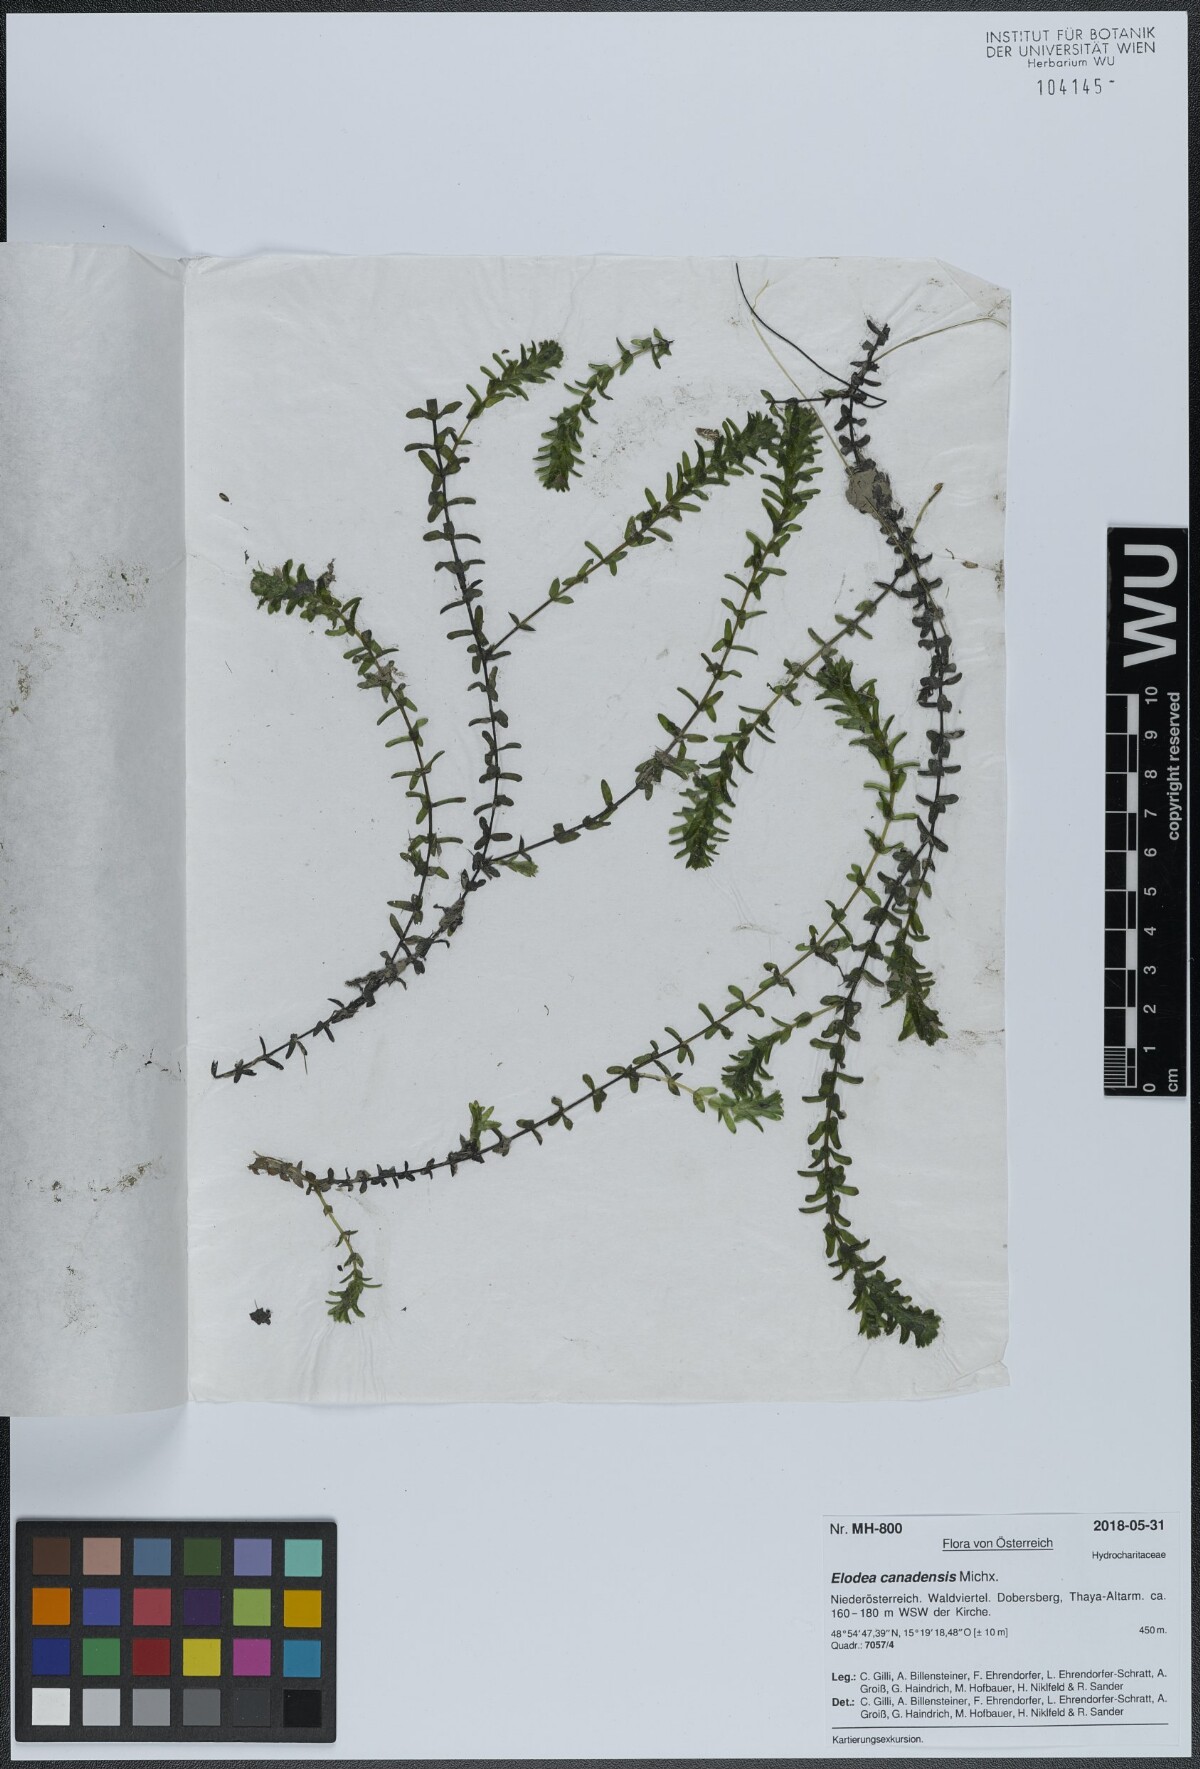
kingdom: Plantae
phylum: Tracheophyta
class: Liliopsida
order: Alismatales
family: Hydrocharitaceae
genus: Elodea
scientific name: Elodea canadensis
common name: Canadian waterweed
